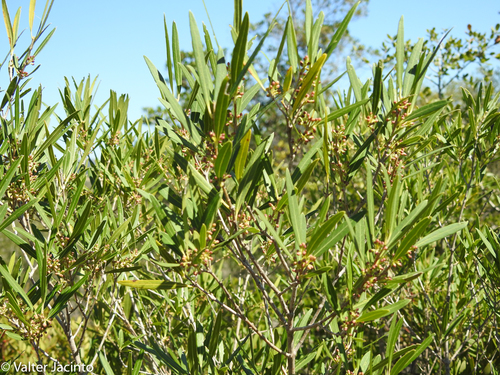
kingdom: Plantae
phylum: Tracheophyta
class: Magnoliopsida
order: Lamiales
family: Oleaceae
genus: Phillyrea
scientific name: Phillyrea angustifolia
